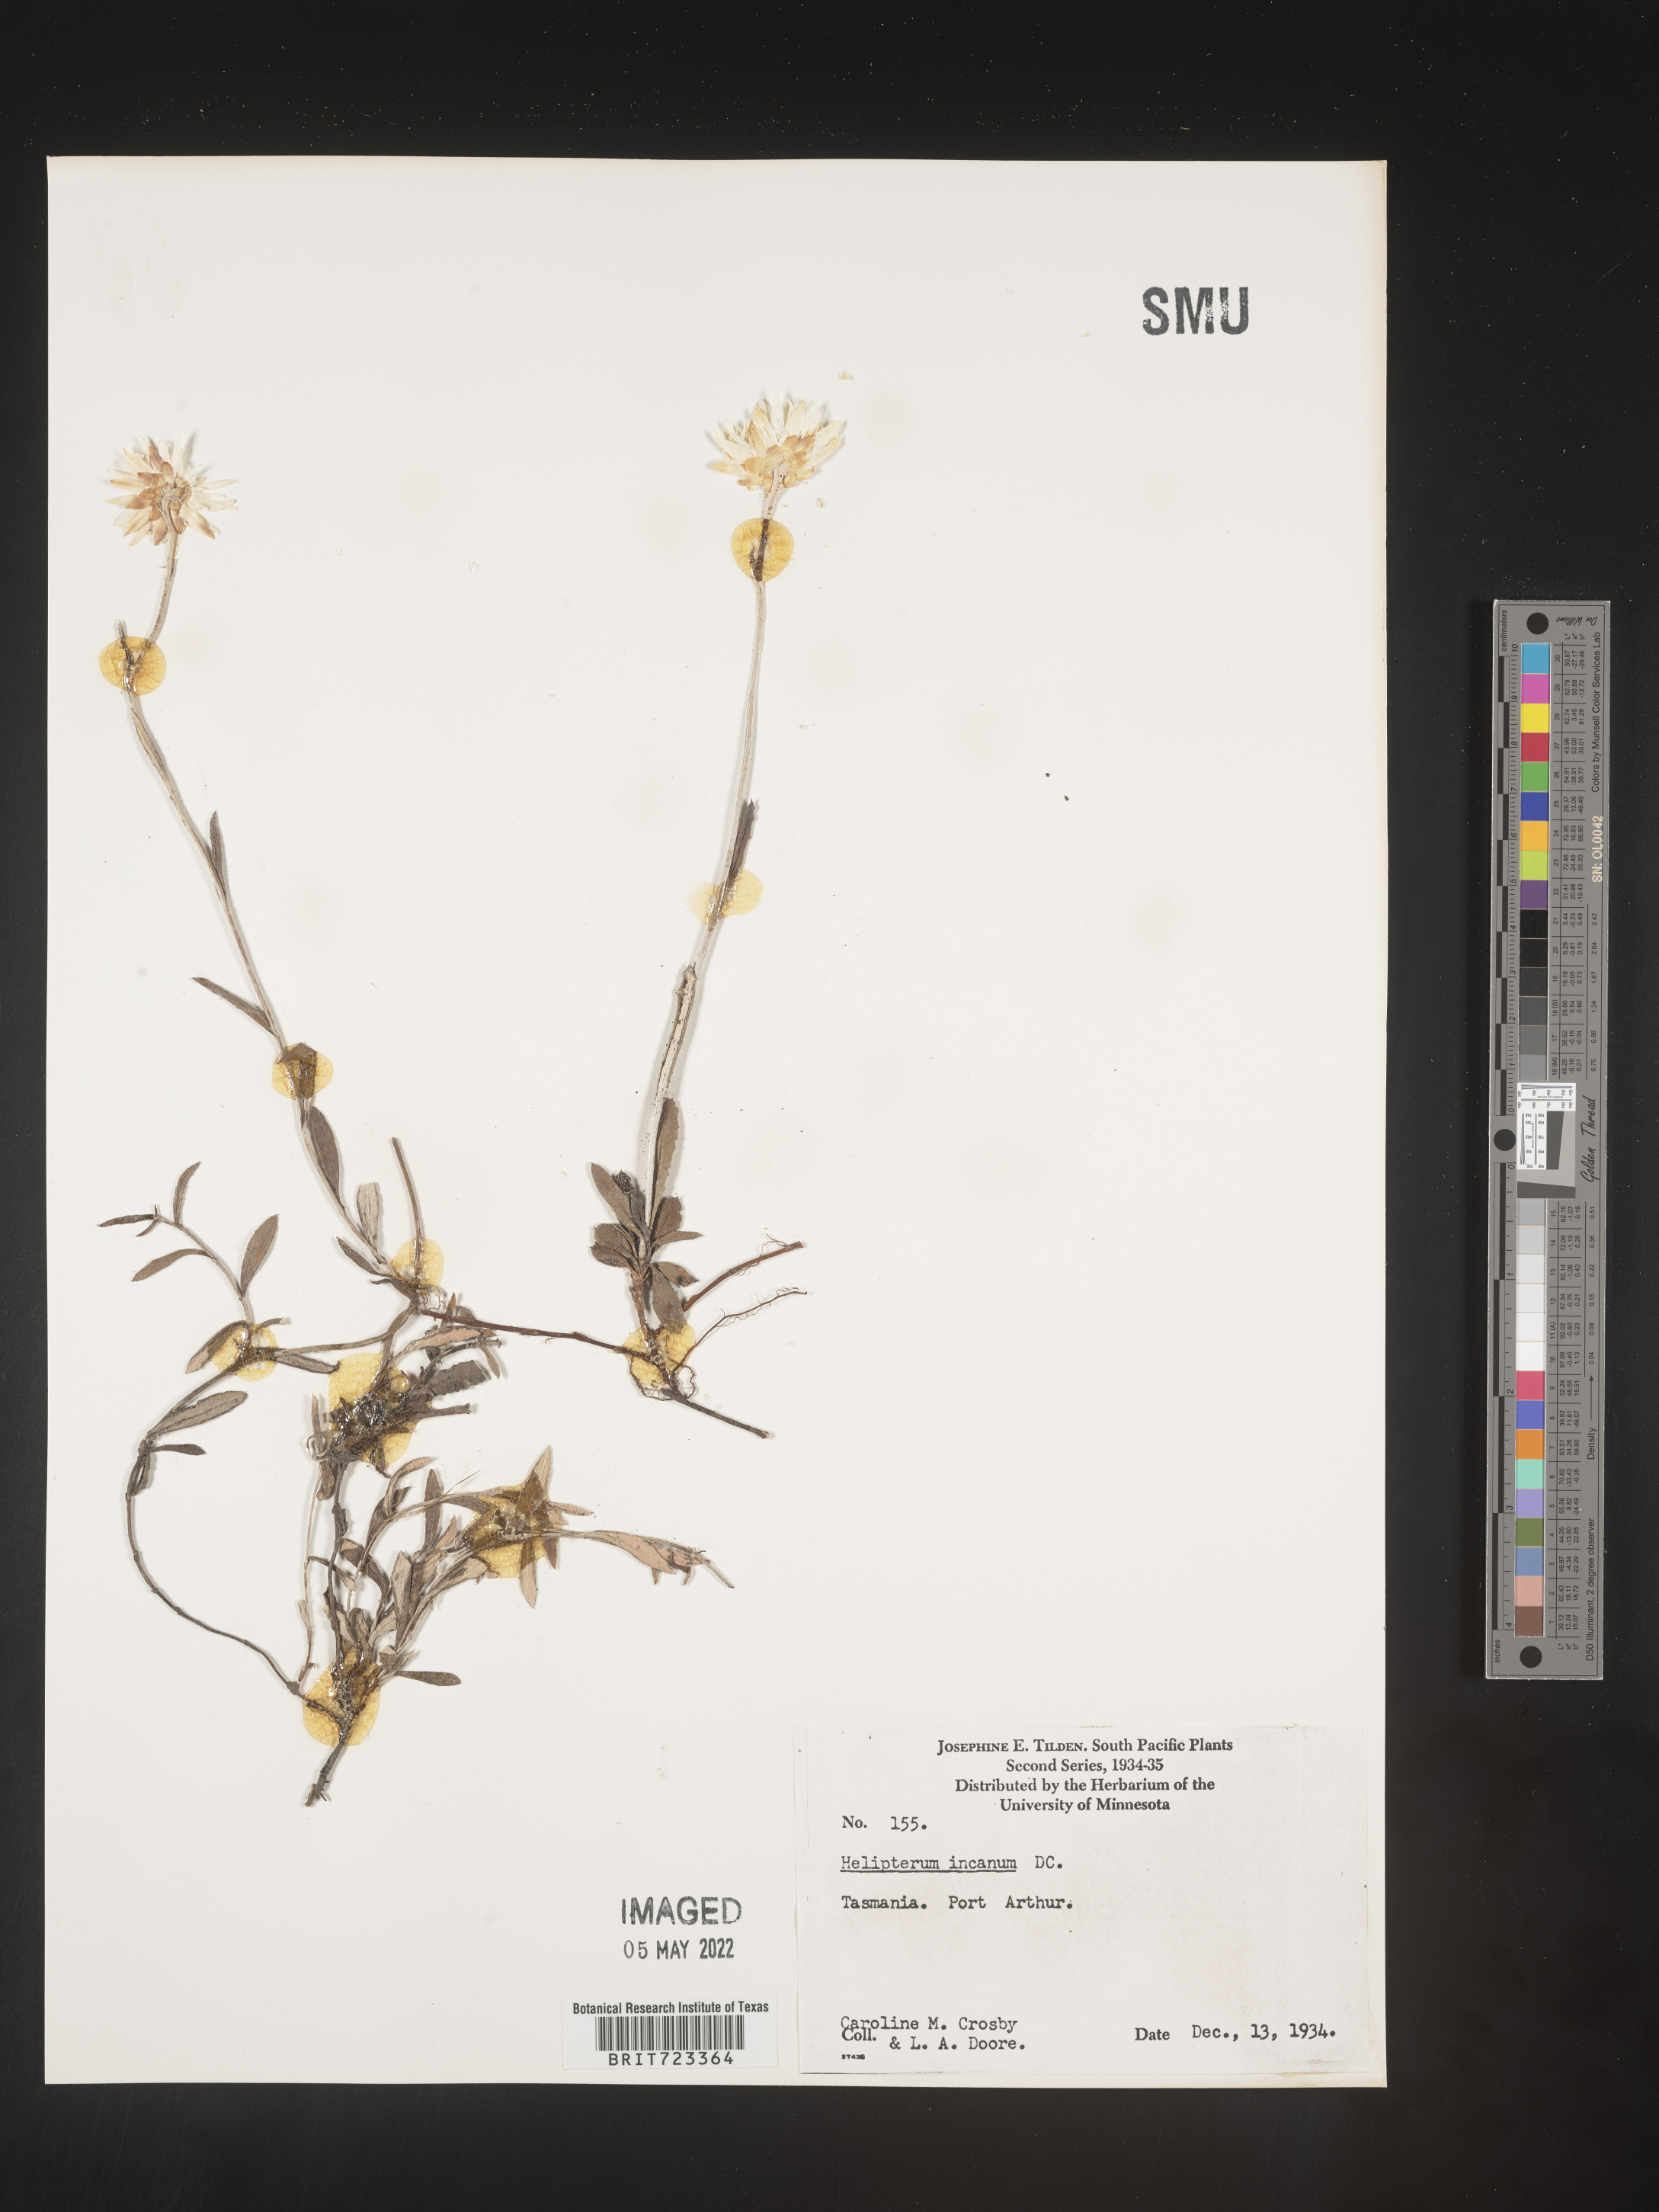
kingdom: Plantae
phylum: Tracheophyta
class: Magnoliopsida
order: Asterales
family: Asteraceae
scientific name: Asteraceae
